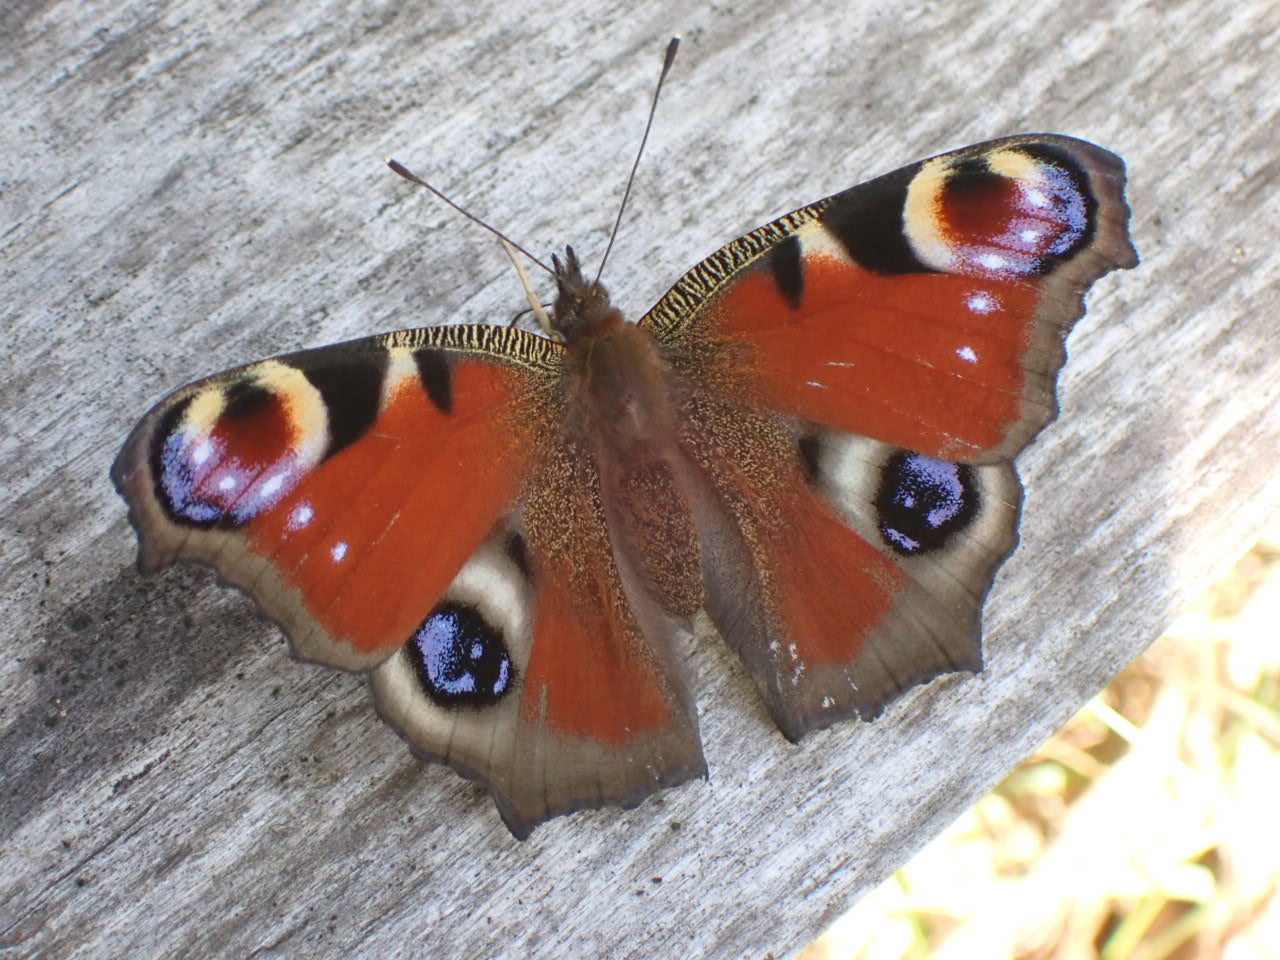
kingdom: Animalia
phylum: Arthropoda
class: Insecta
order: Lepidoptera
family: Nymphalidae
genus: Aglais
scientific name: Aglais io
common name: Dagpåfugleøje
